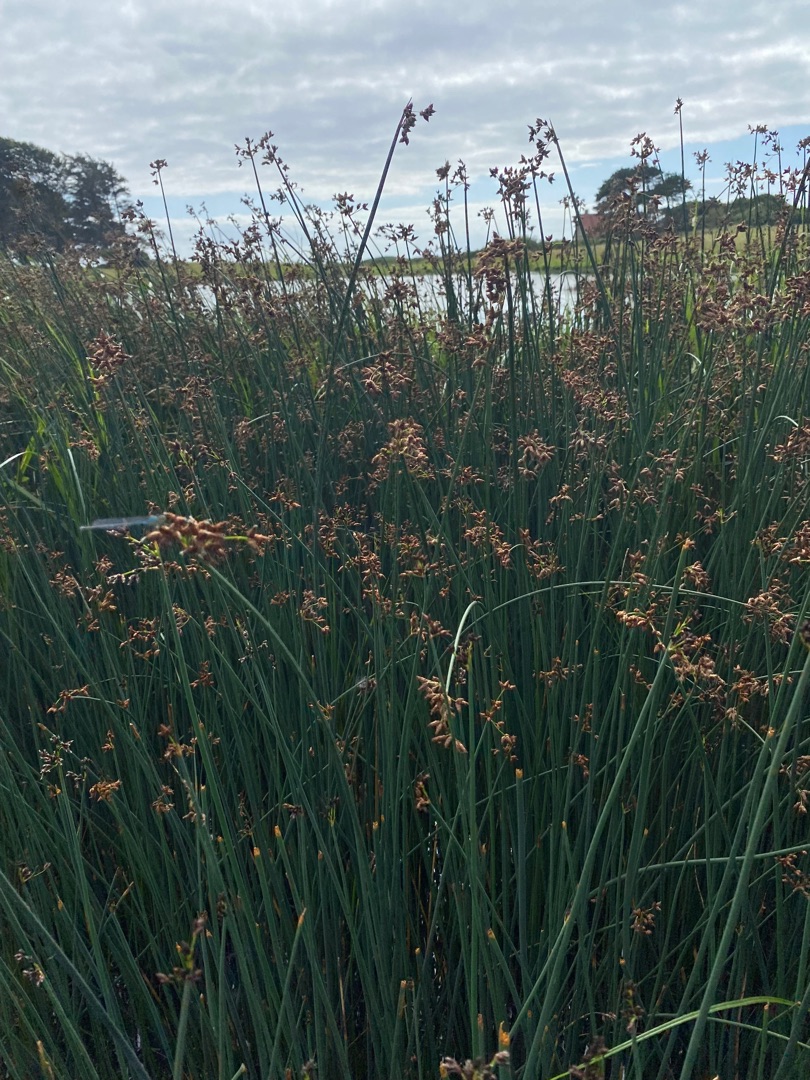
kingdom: Plantae
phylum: Tracheophyta
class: Liliopsida
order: Poales
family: Cyperaceae
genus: Schoenoplectus
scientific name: Schoenoplectus tabernaemontani
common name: Blågrøn kogleaks
